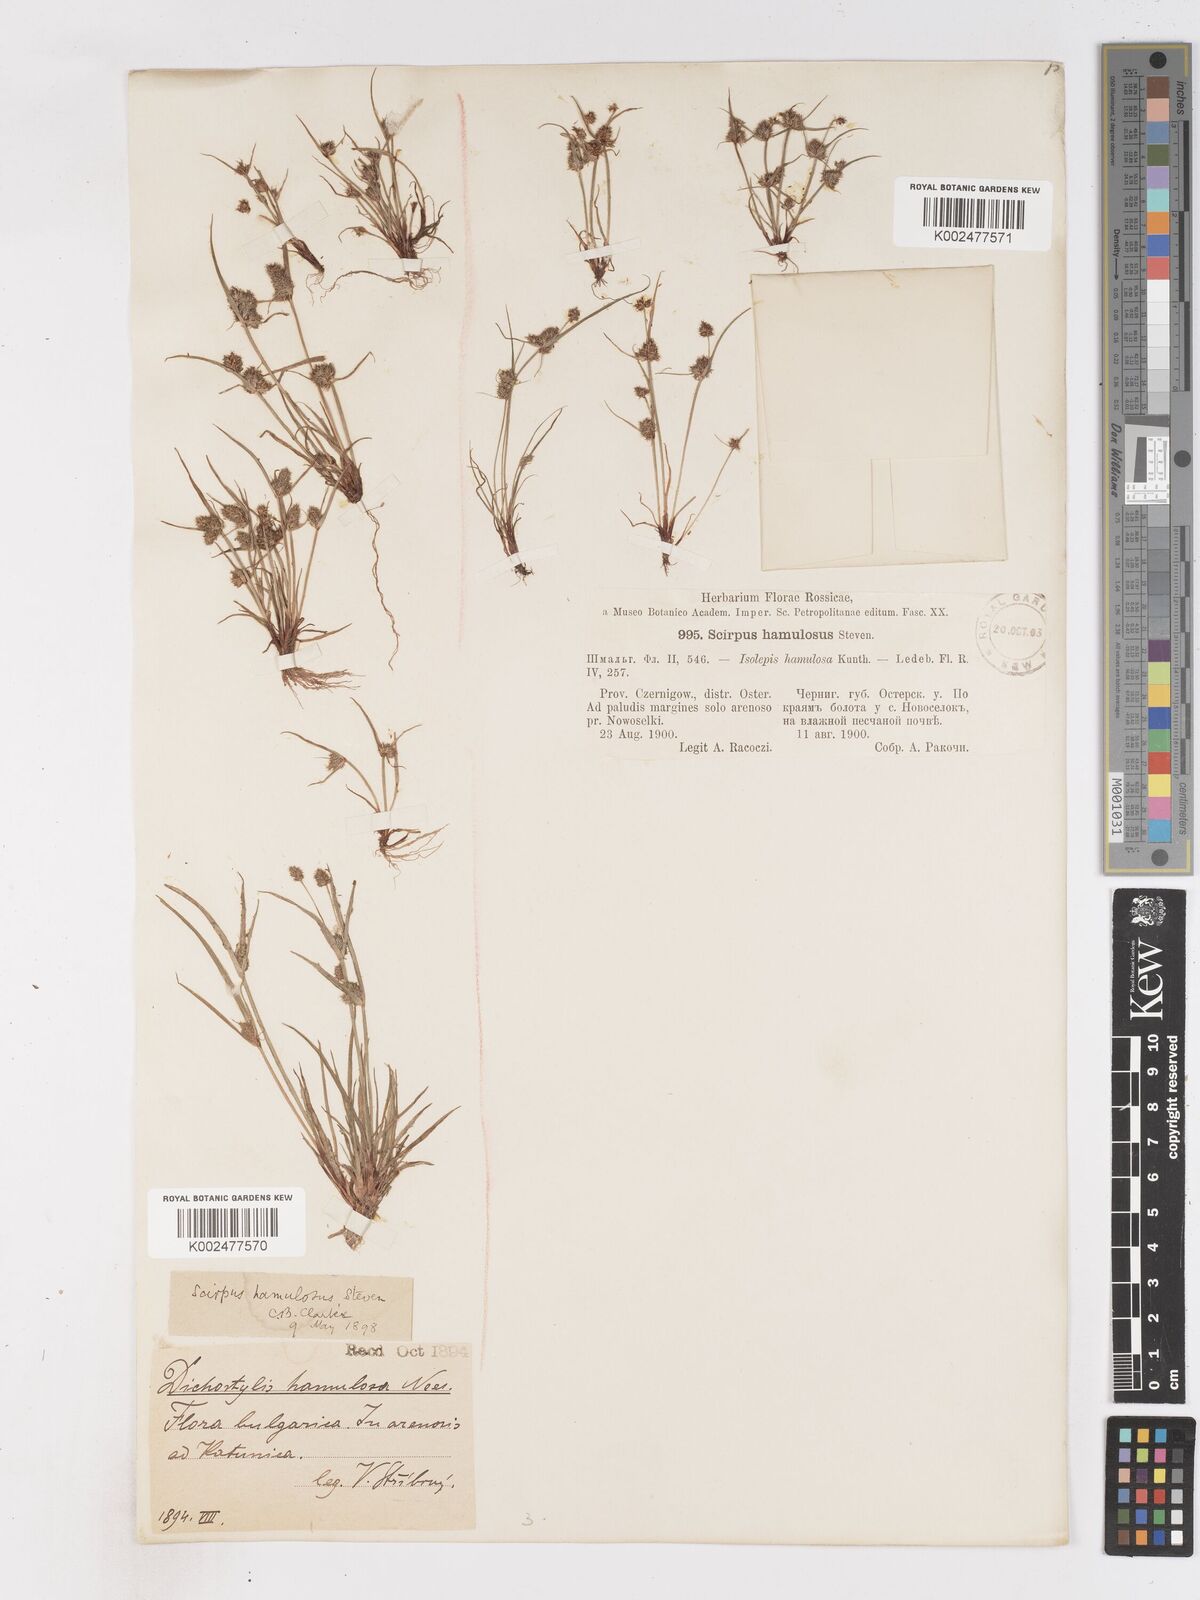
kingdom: Plantae
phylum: Tracheophyta
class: Liliopsida
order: Poales
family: Cyperaceae
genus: Cyperus
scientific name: Cyperus hamulosus
